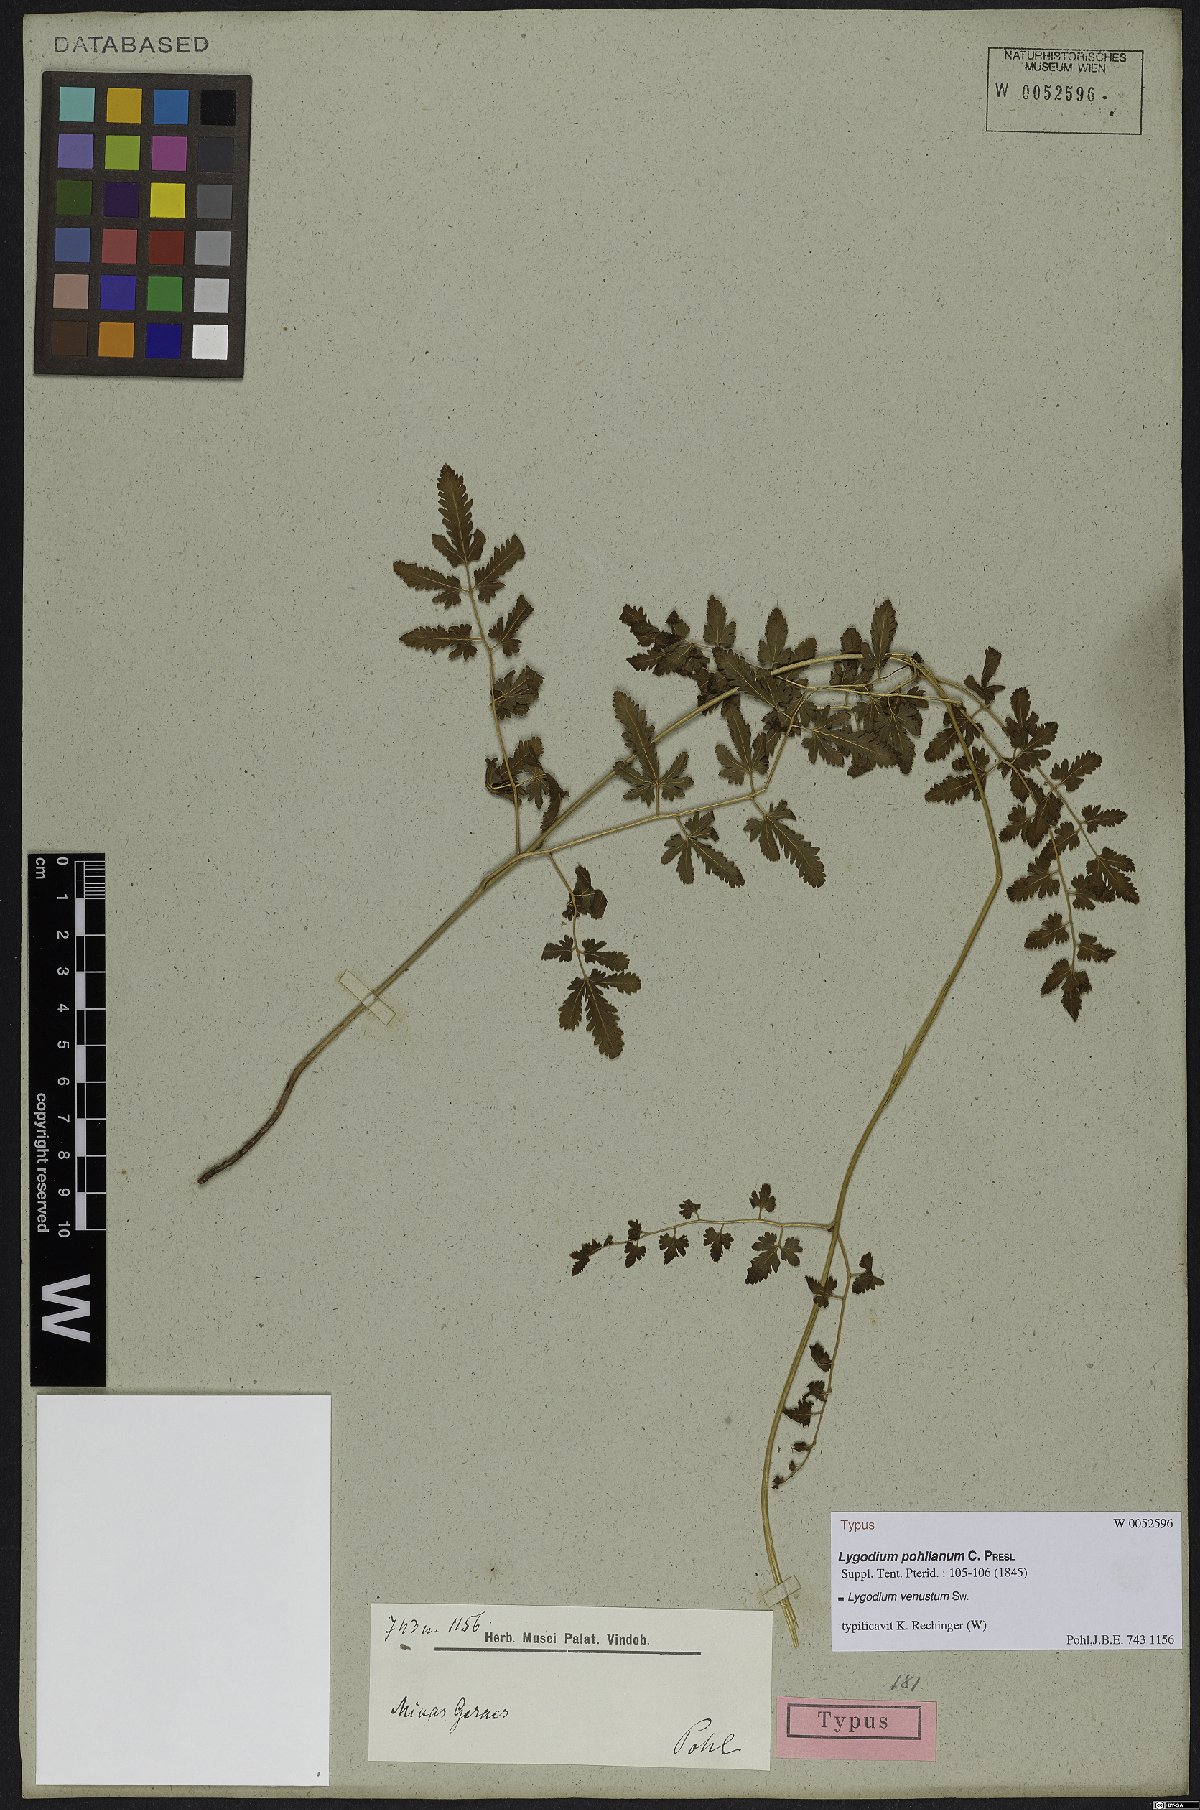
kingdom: Plantae
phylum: Tracheophyta
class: Polypodiopsida
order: Schizaeales
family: Lygodiaceae
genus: Lygodium
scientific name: Lygodium venustum
